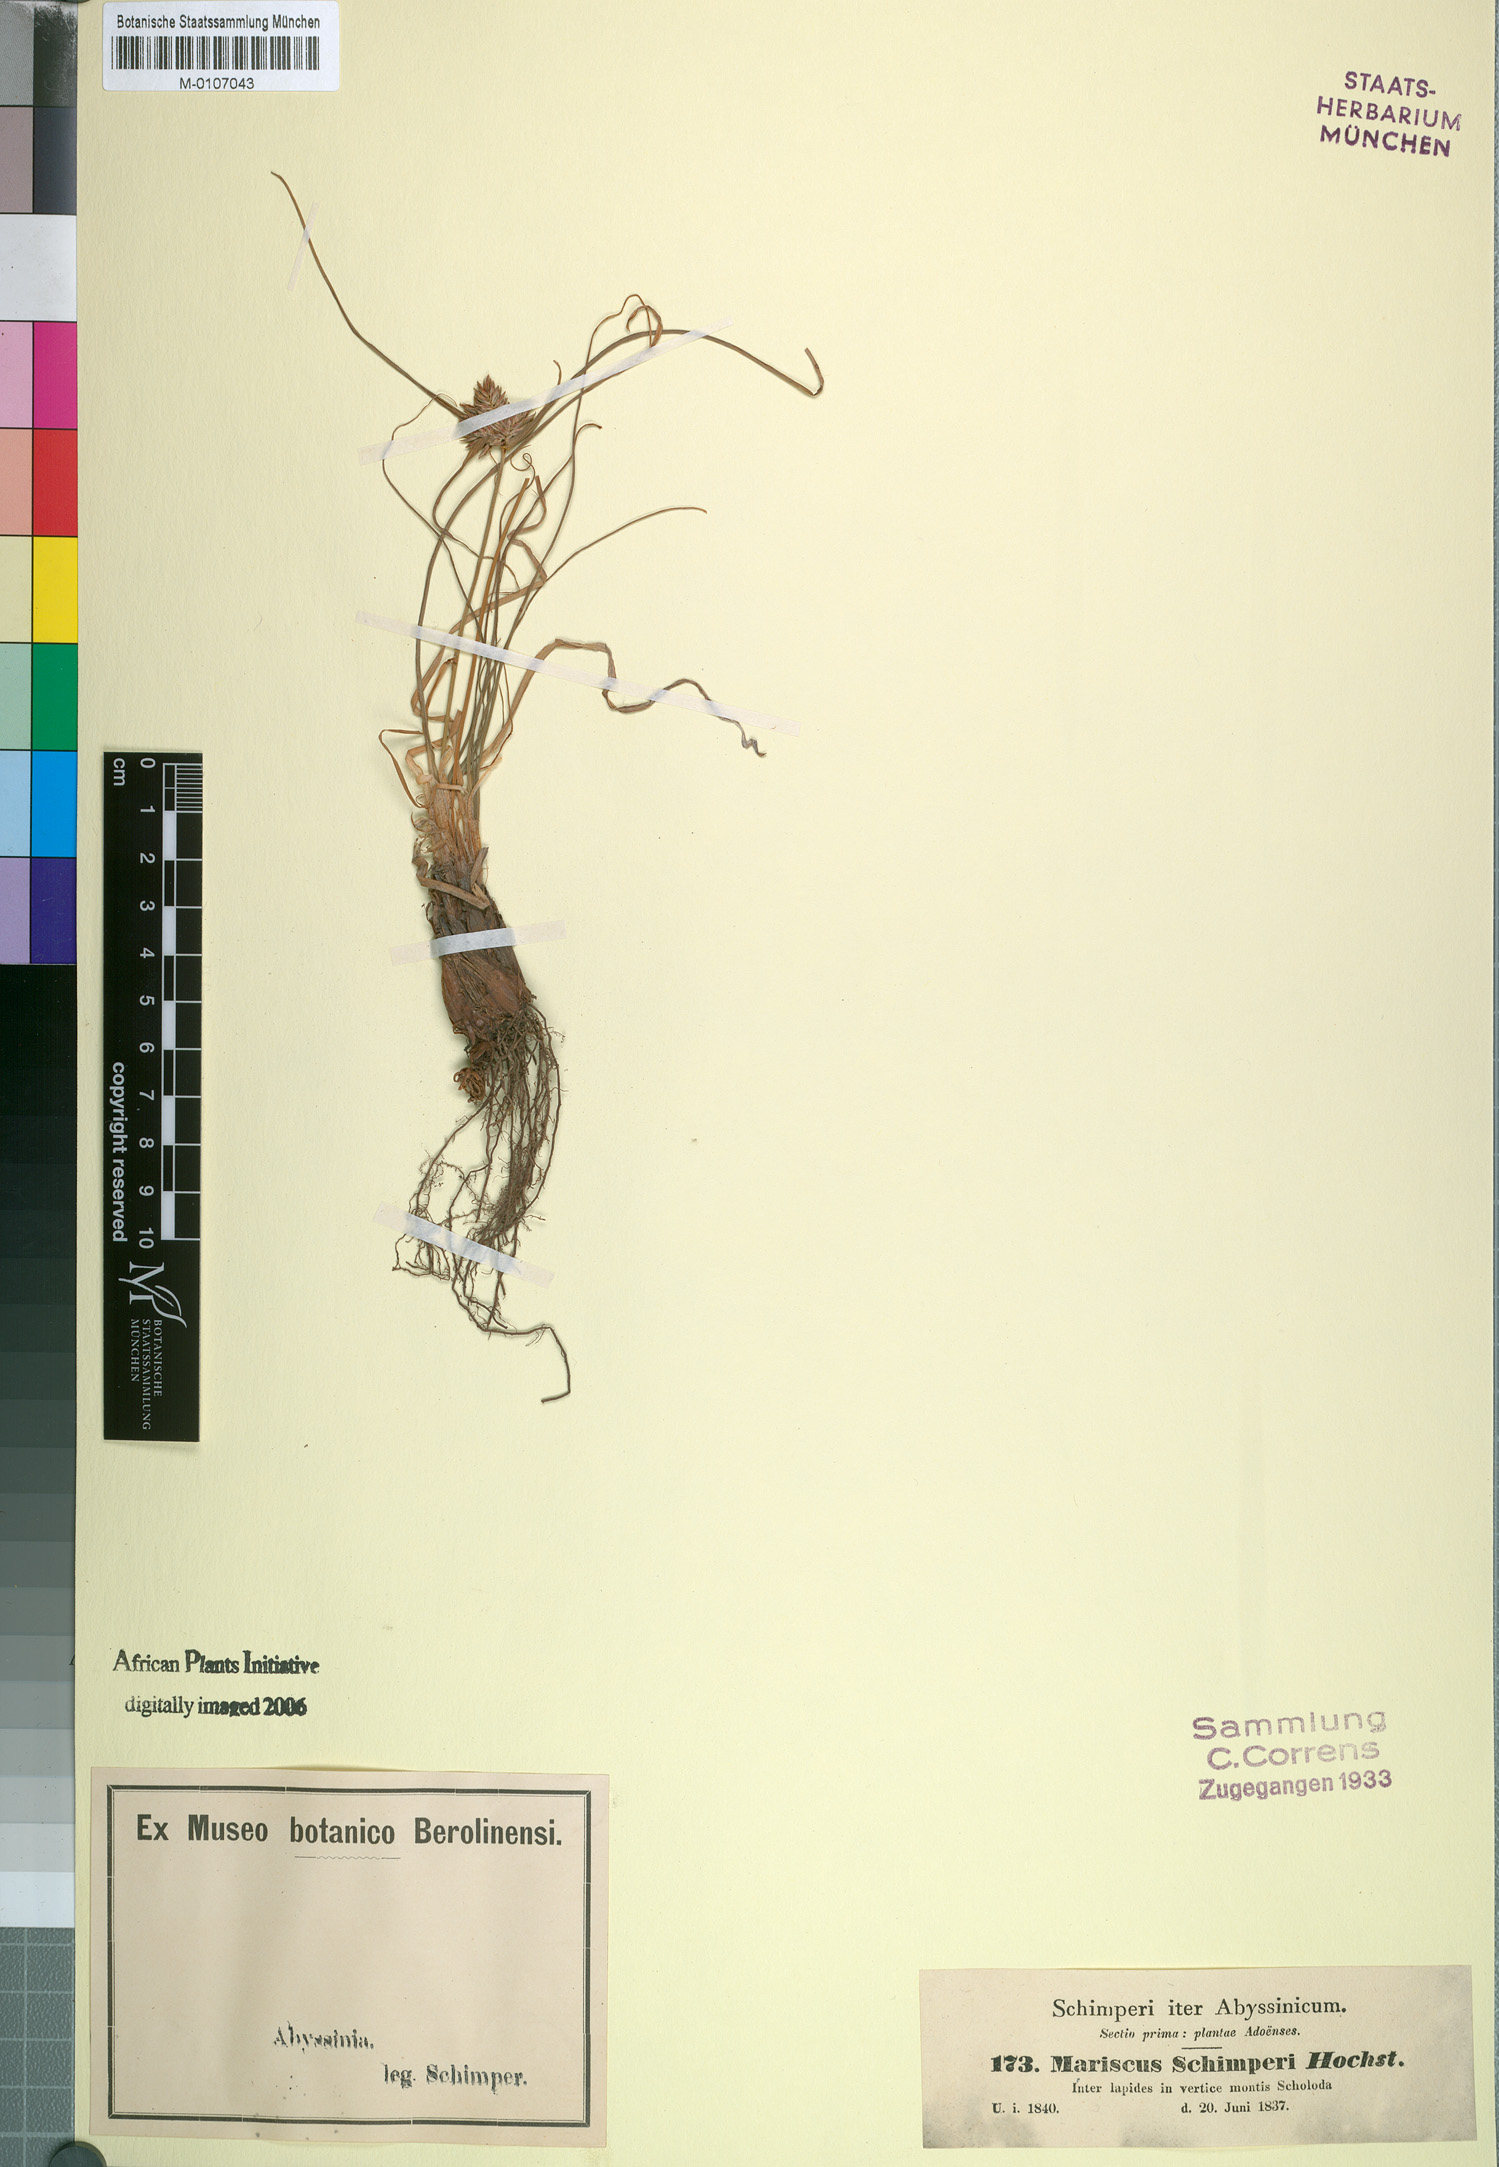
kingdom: Plantae
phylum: Tracheophyta
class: Liliopsida
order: Poales
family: Cyperaceae
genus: Cyperus
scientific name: Cyperus cruentus
